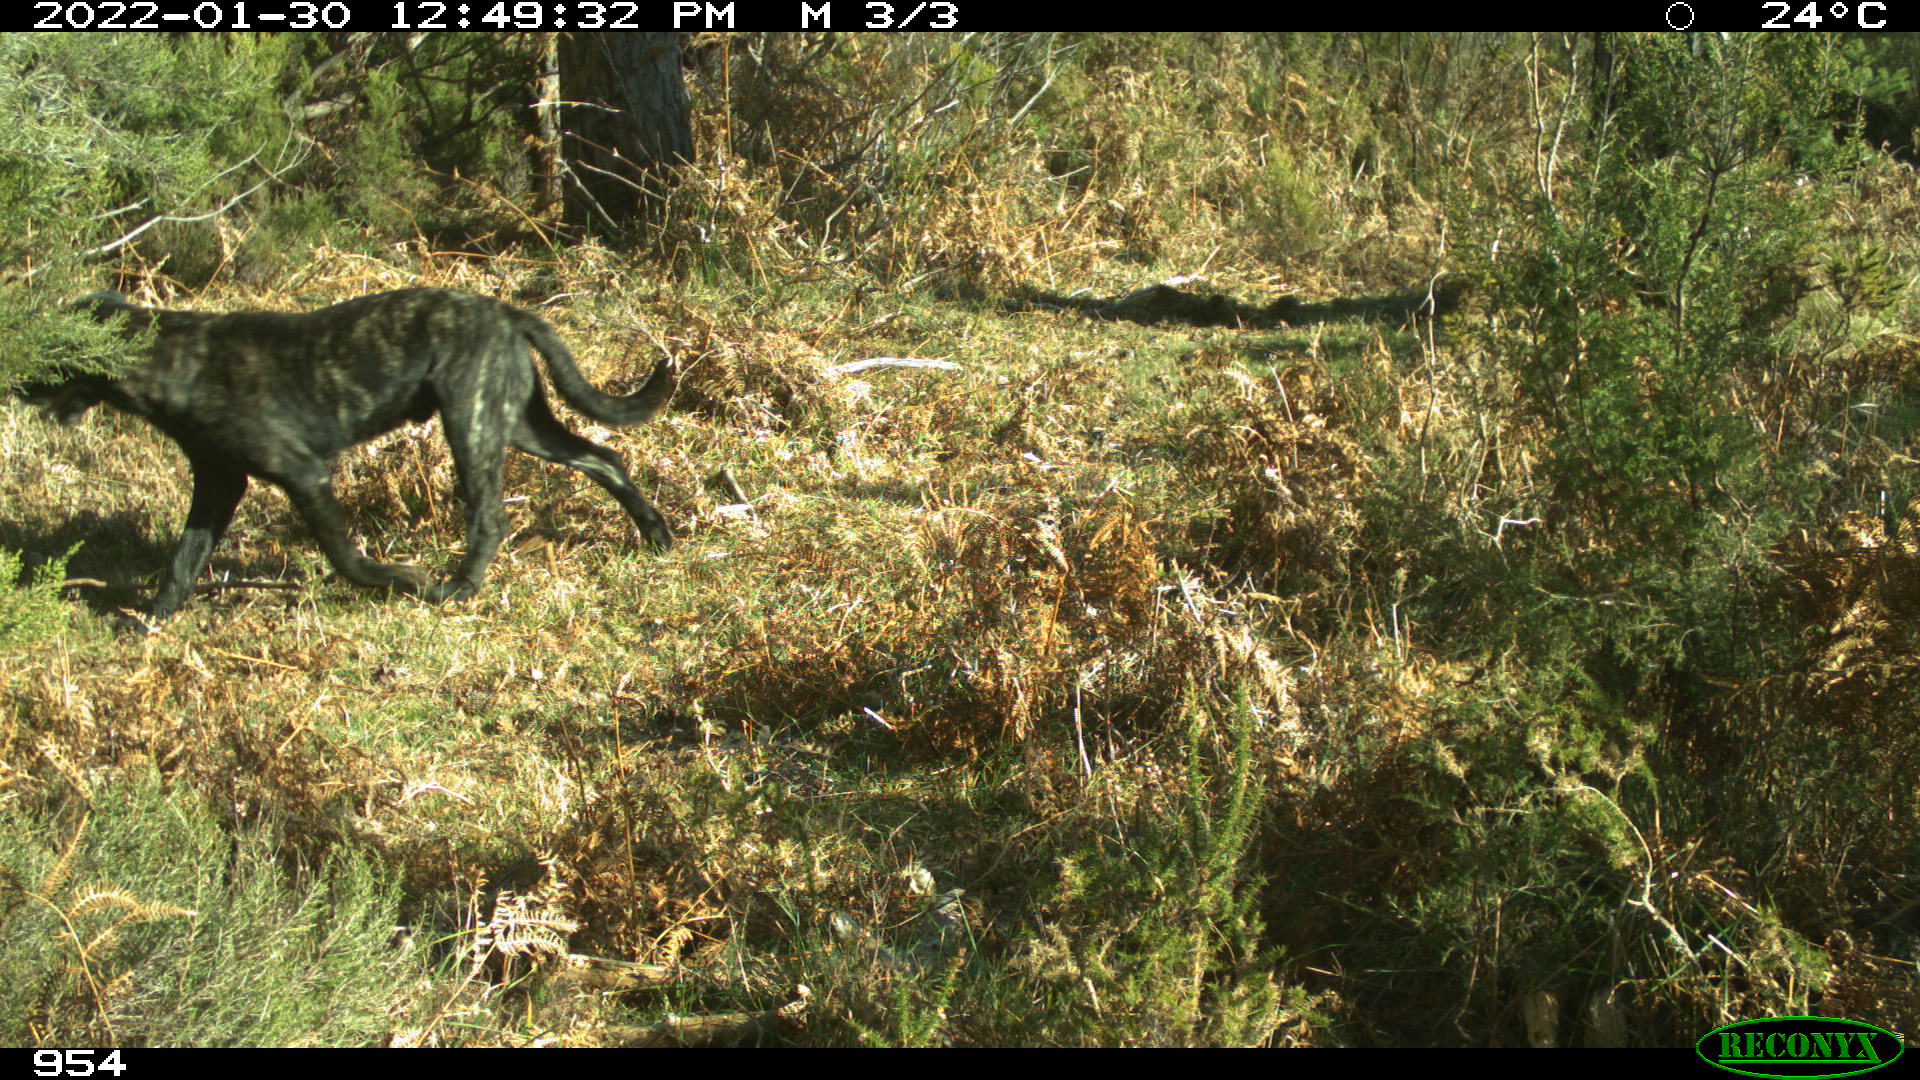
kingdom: Animalia
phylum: Chordata
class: Mammalia
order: Carnivora
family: Canidae
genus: Canis
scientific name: Canis lupus
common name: Gray wolf
